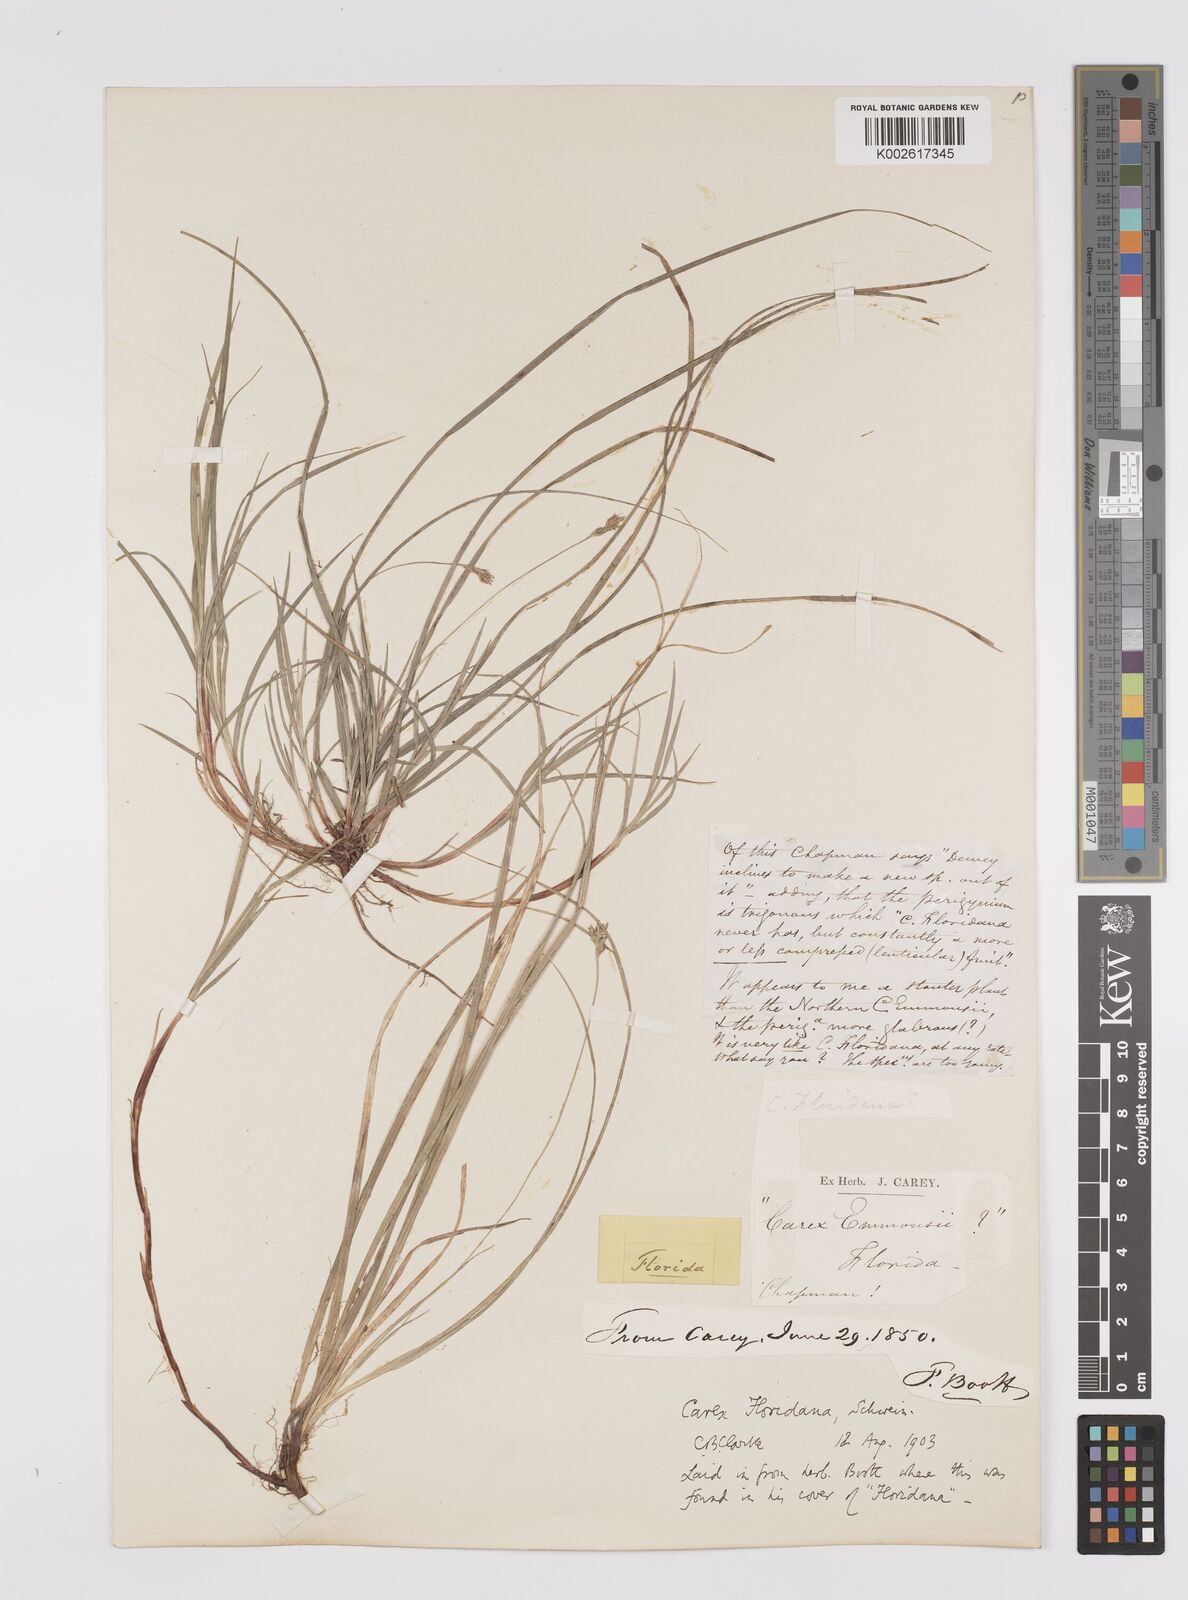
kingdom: Plantae
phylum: Tracheophyta
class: Liliopsida
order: Poales
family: Cyperaceae
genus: Carex
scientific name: Carex floridana
